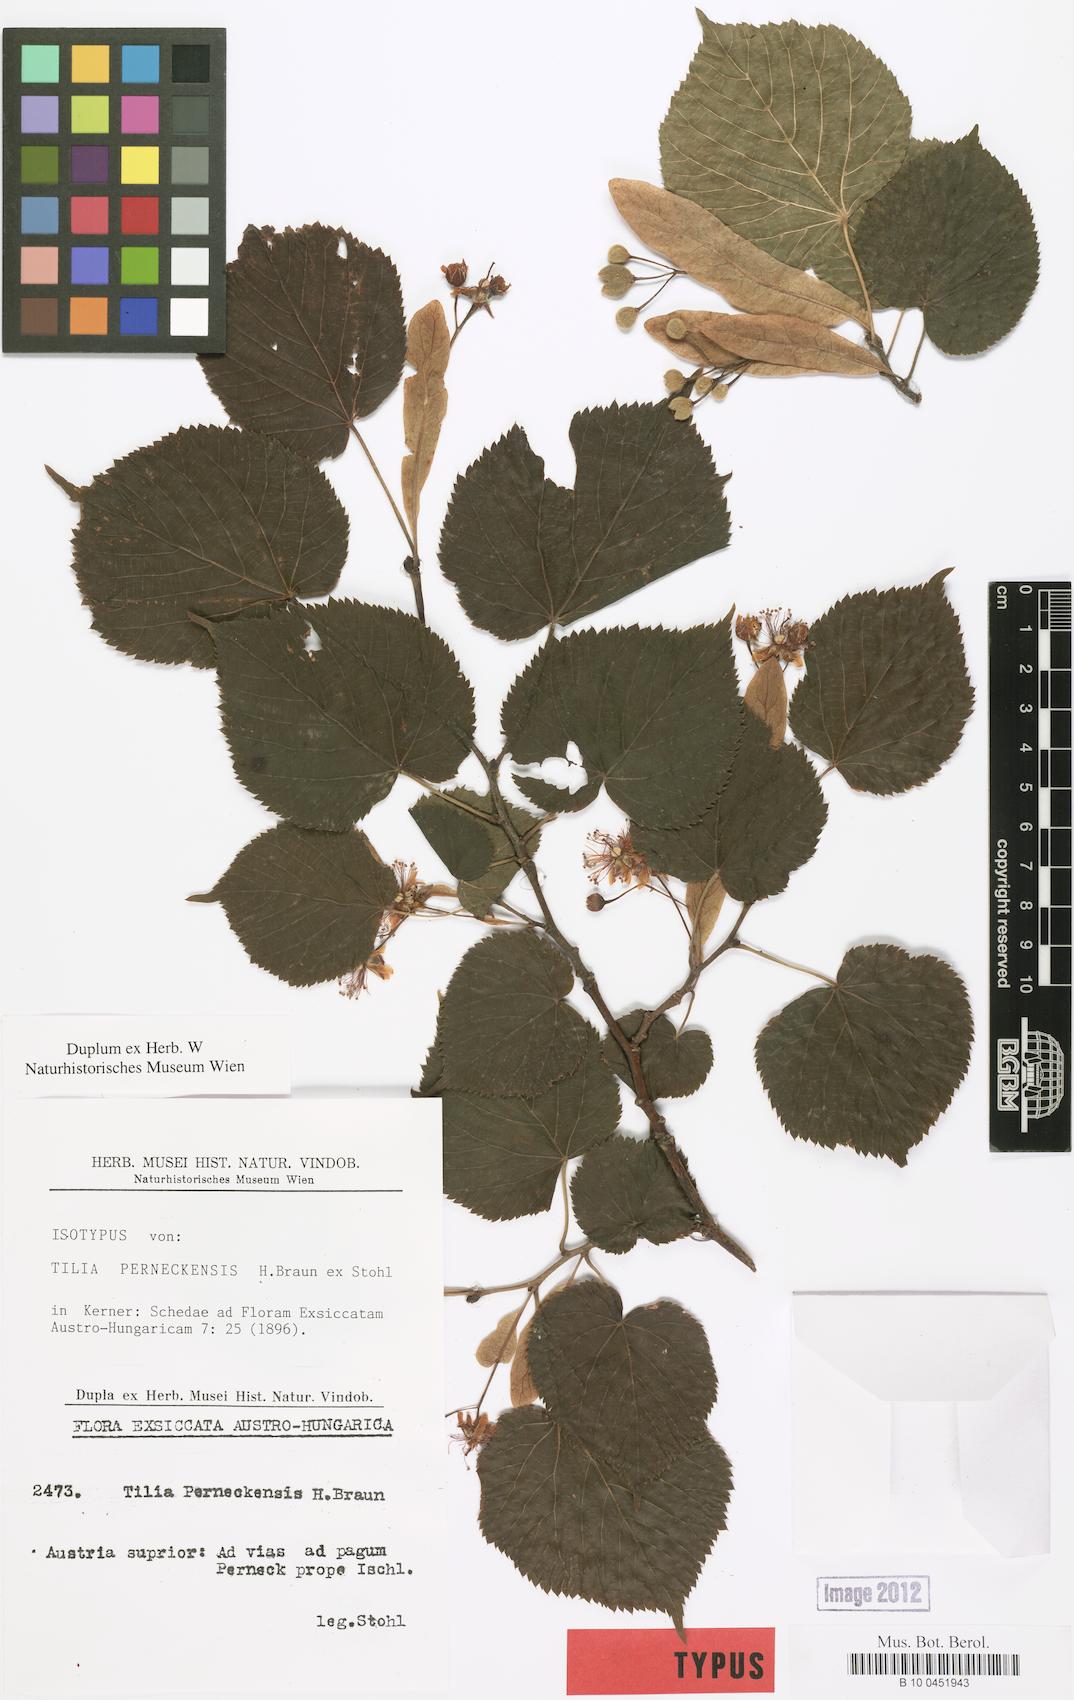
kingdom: Plantae
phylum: Tracheophyta
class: Magnoliopsida
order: Malvales
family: Malvaceae
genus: Tilia
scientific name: Tilia perneckensis
